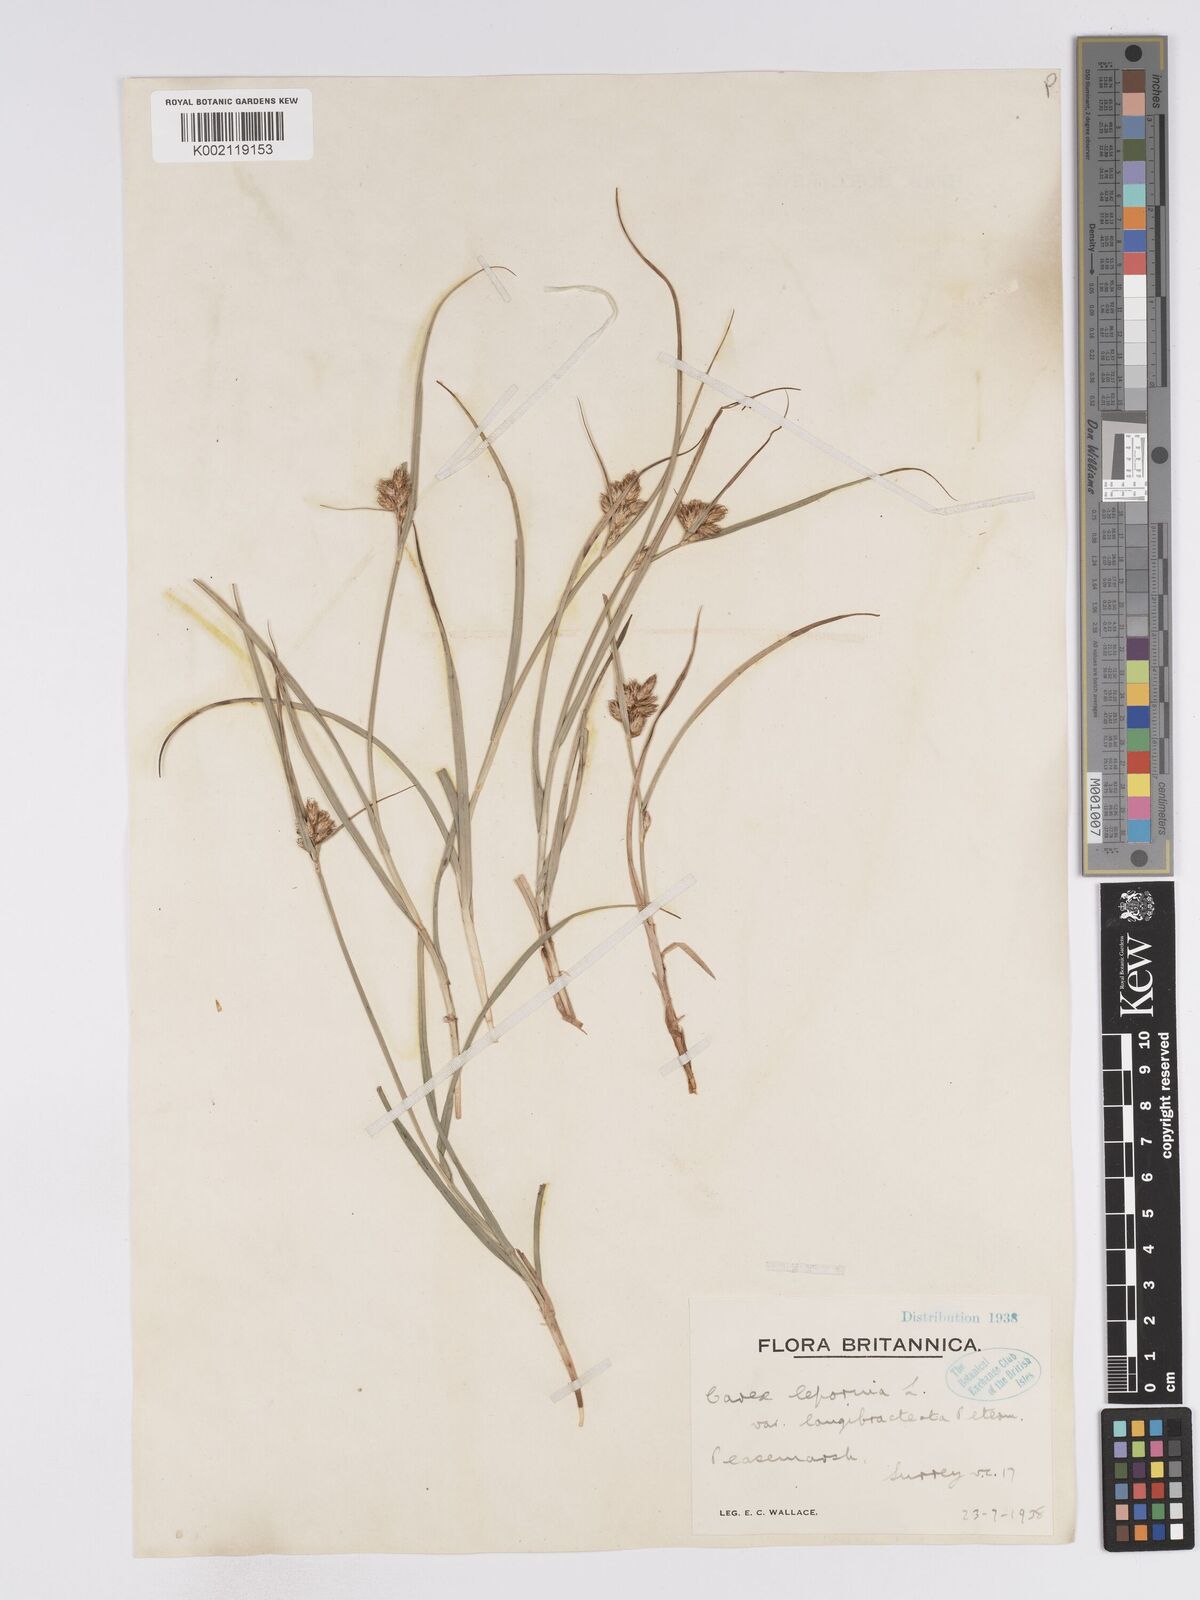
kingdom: Plantae
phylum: Tracheophyta
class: Liliopsida
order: Poales
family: Cyperaceae
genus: Carex
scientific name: Carex leporina
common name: Oval sedge
